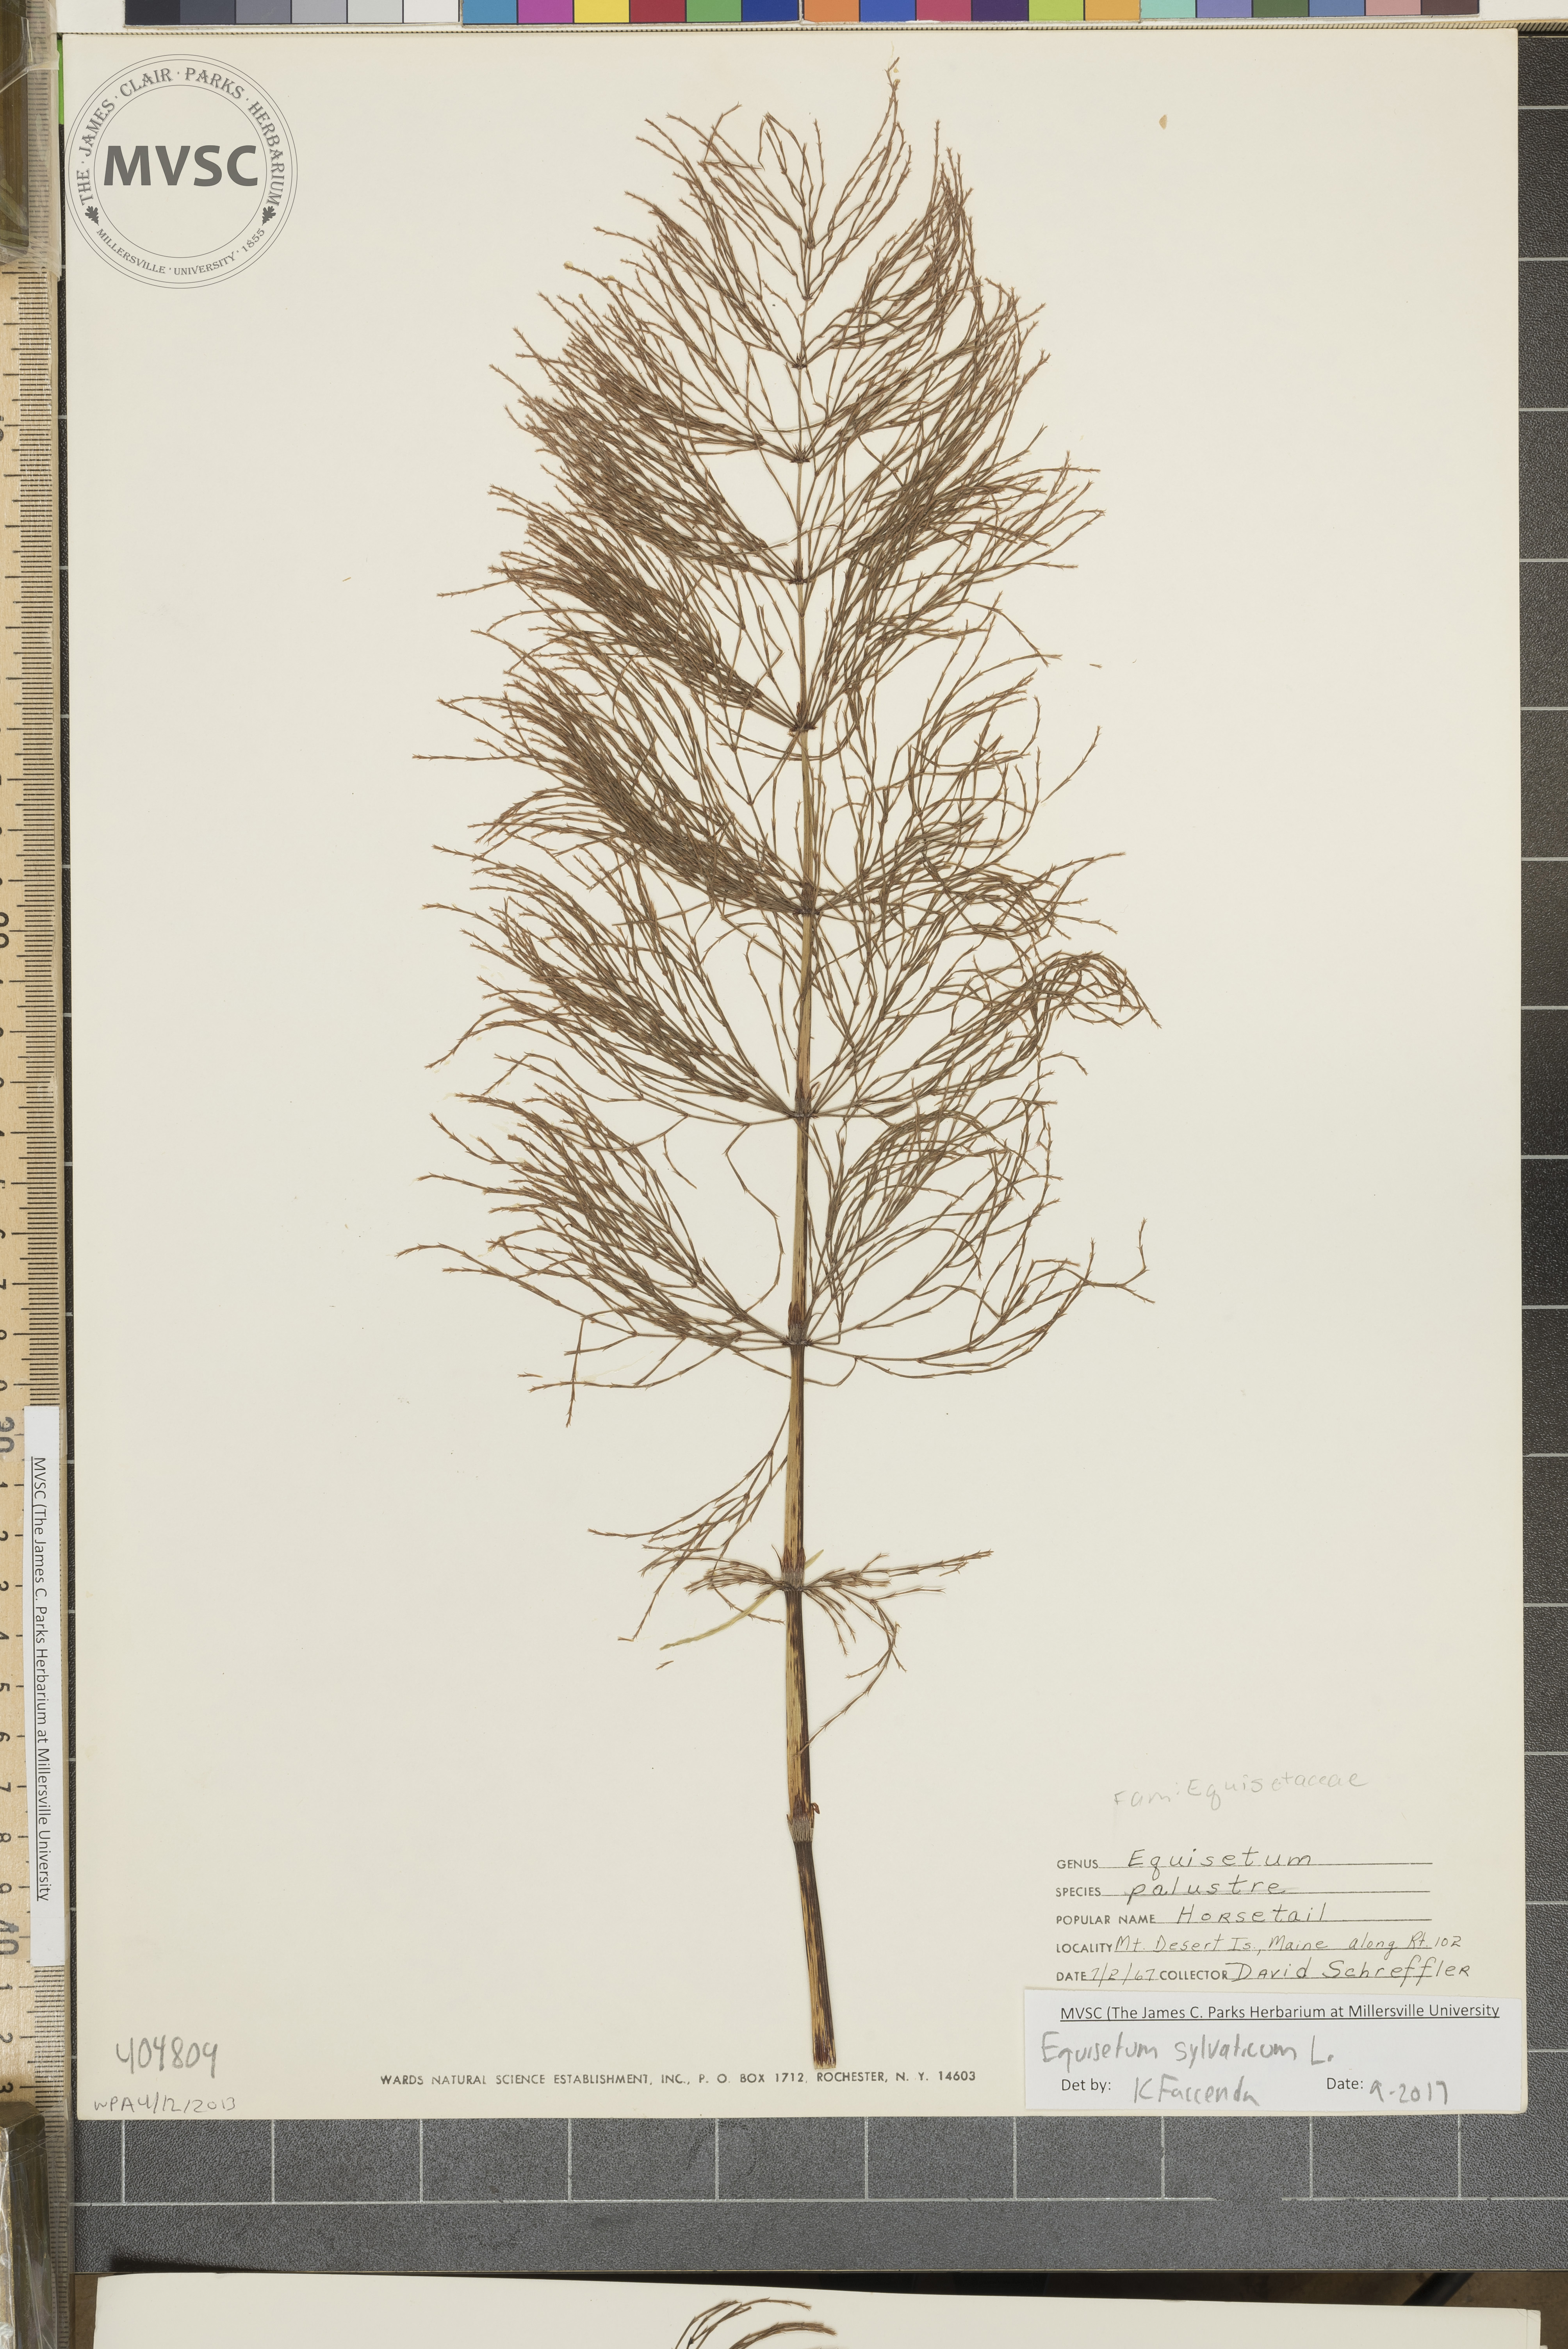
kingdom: Plantae
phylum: Tracheophyta
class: Polypodiopsida
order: Equisetales
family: Equisetaceae
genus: Equisetum
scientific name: Equisetum sylvaticum
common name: Horsetail
